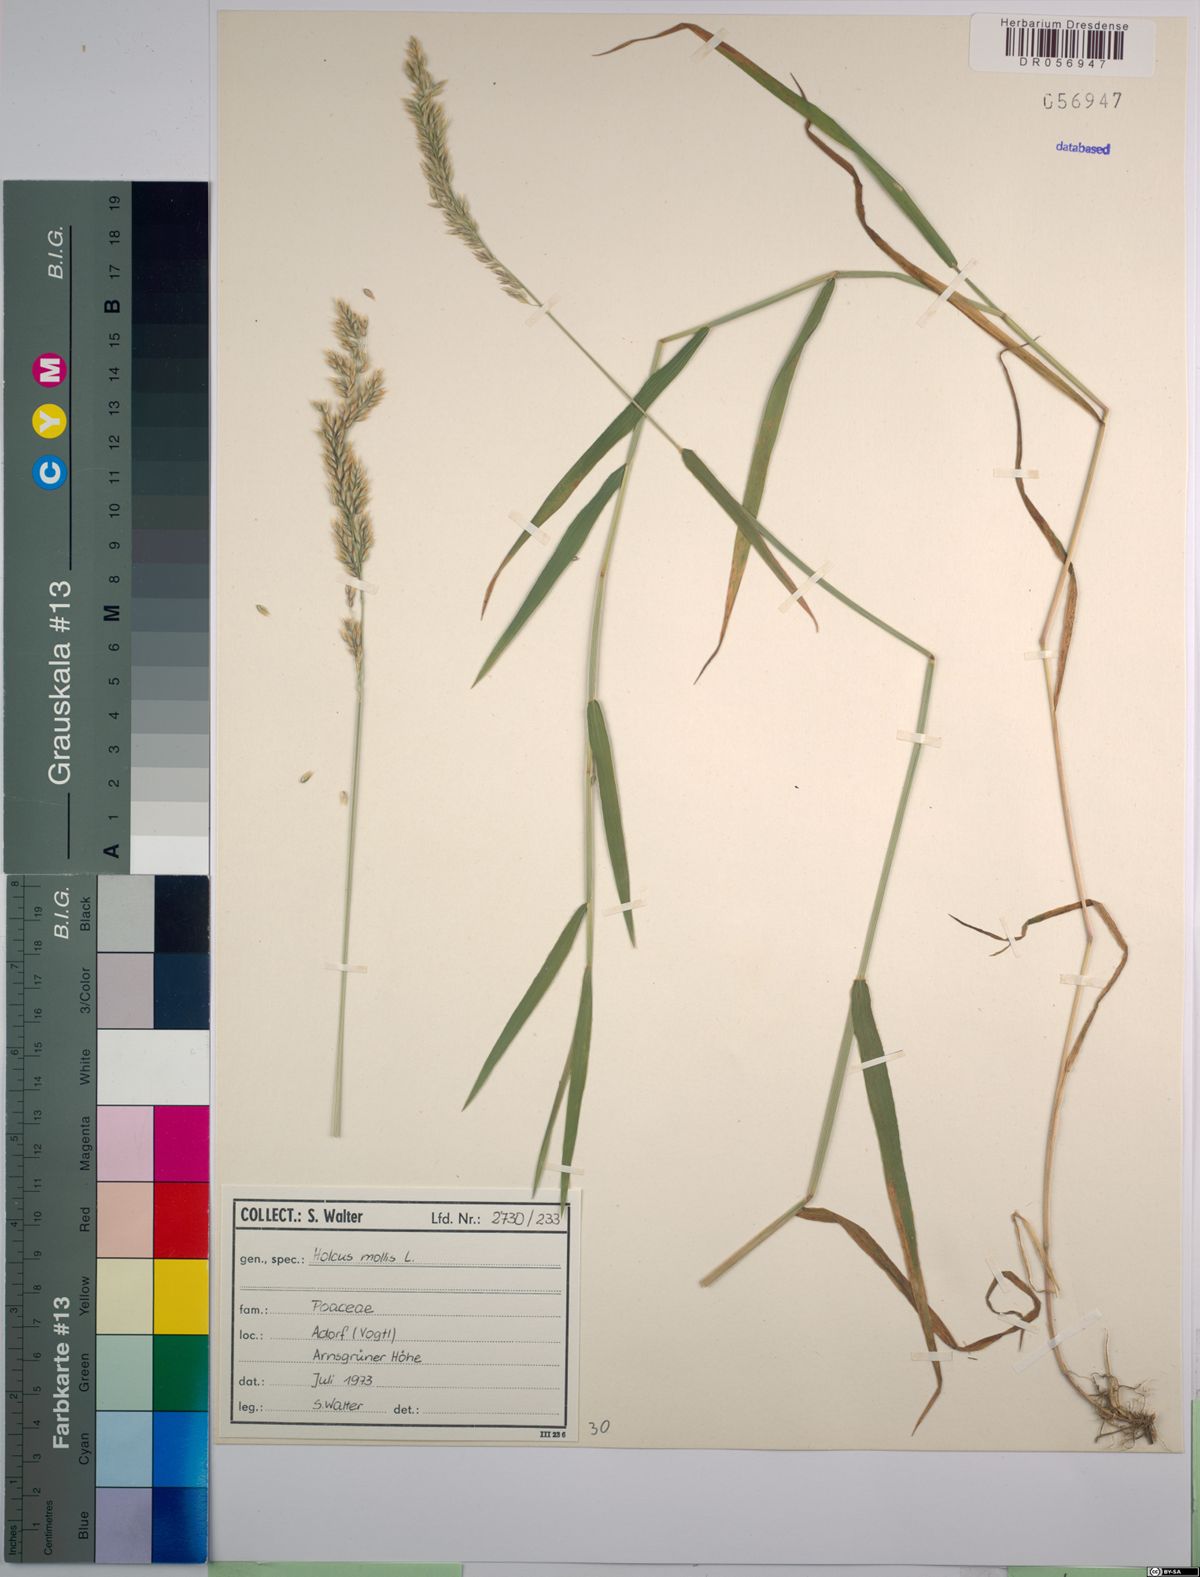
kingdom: Plantae
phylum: Tracheophyta
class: Liliopsida
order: Poales
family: Poaceae
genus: Holcus
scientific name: Holcus mollis
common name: Creeping velvetgrass
